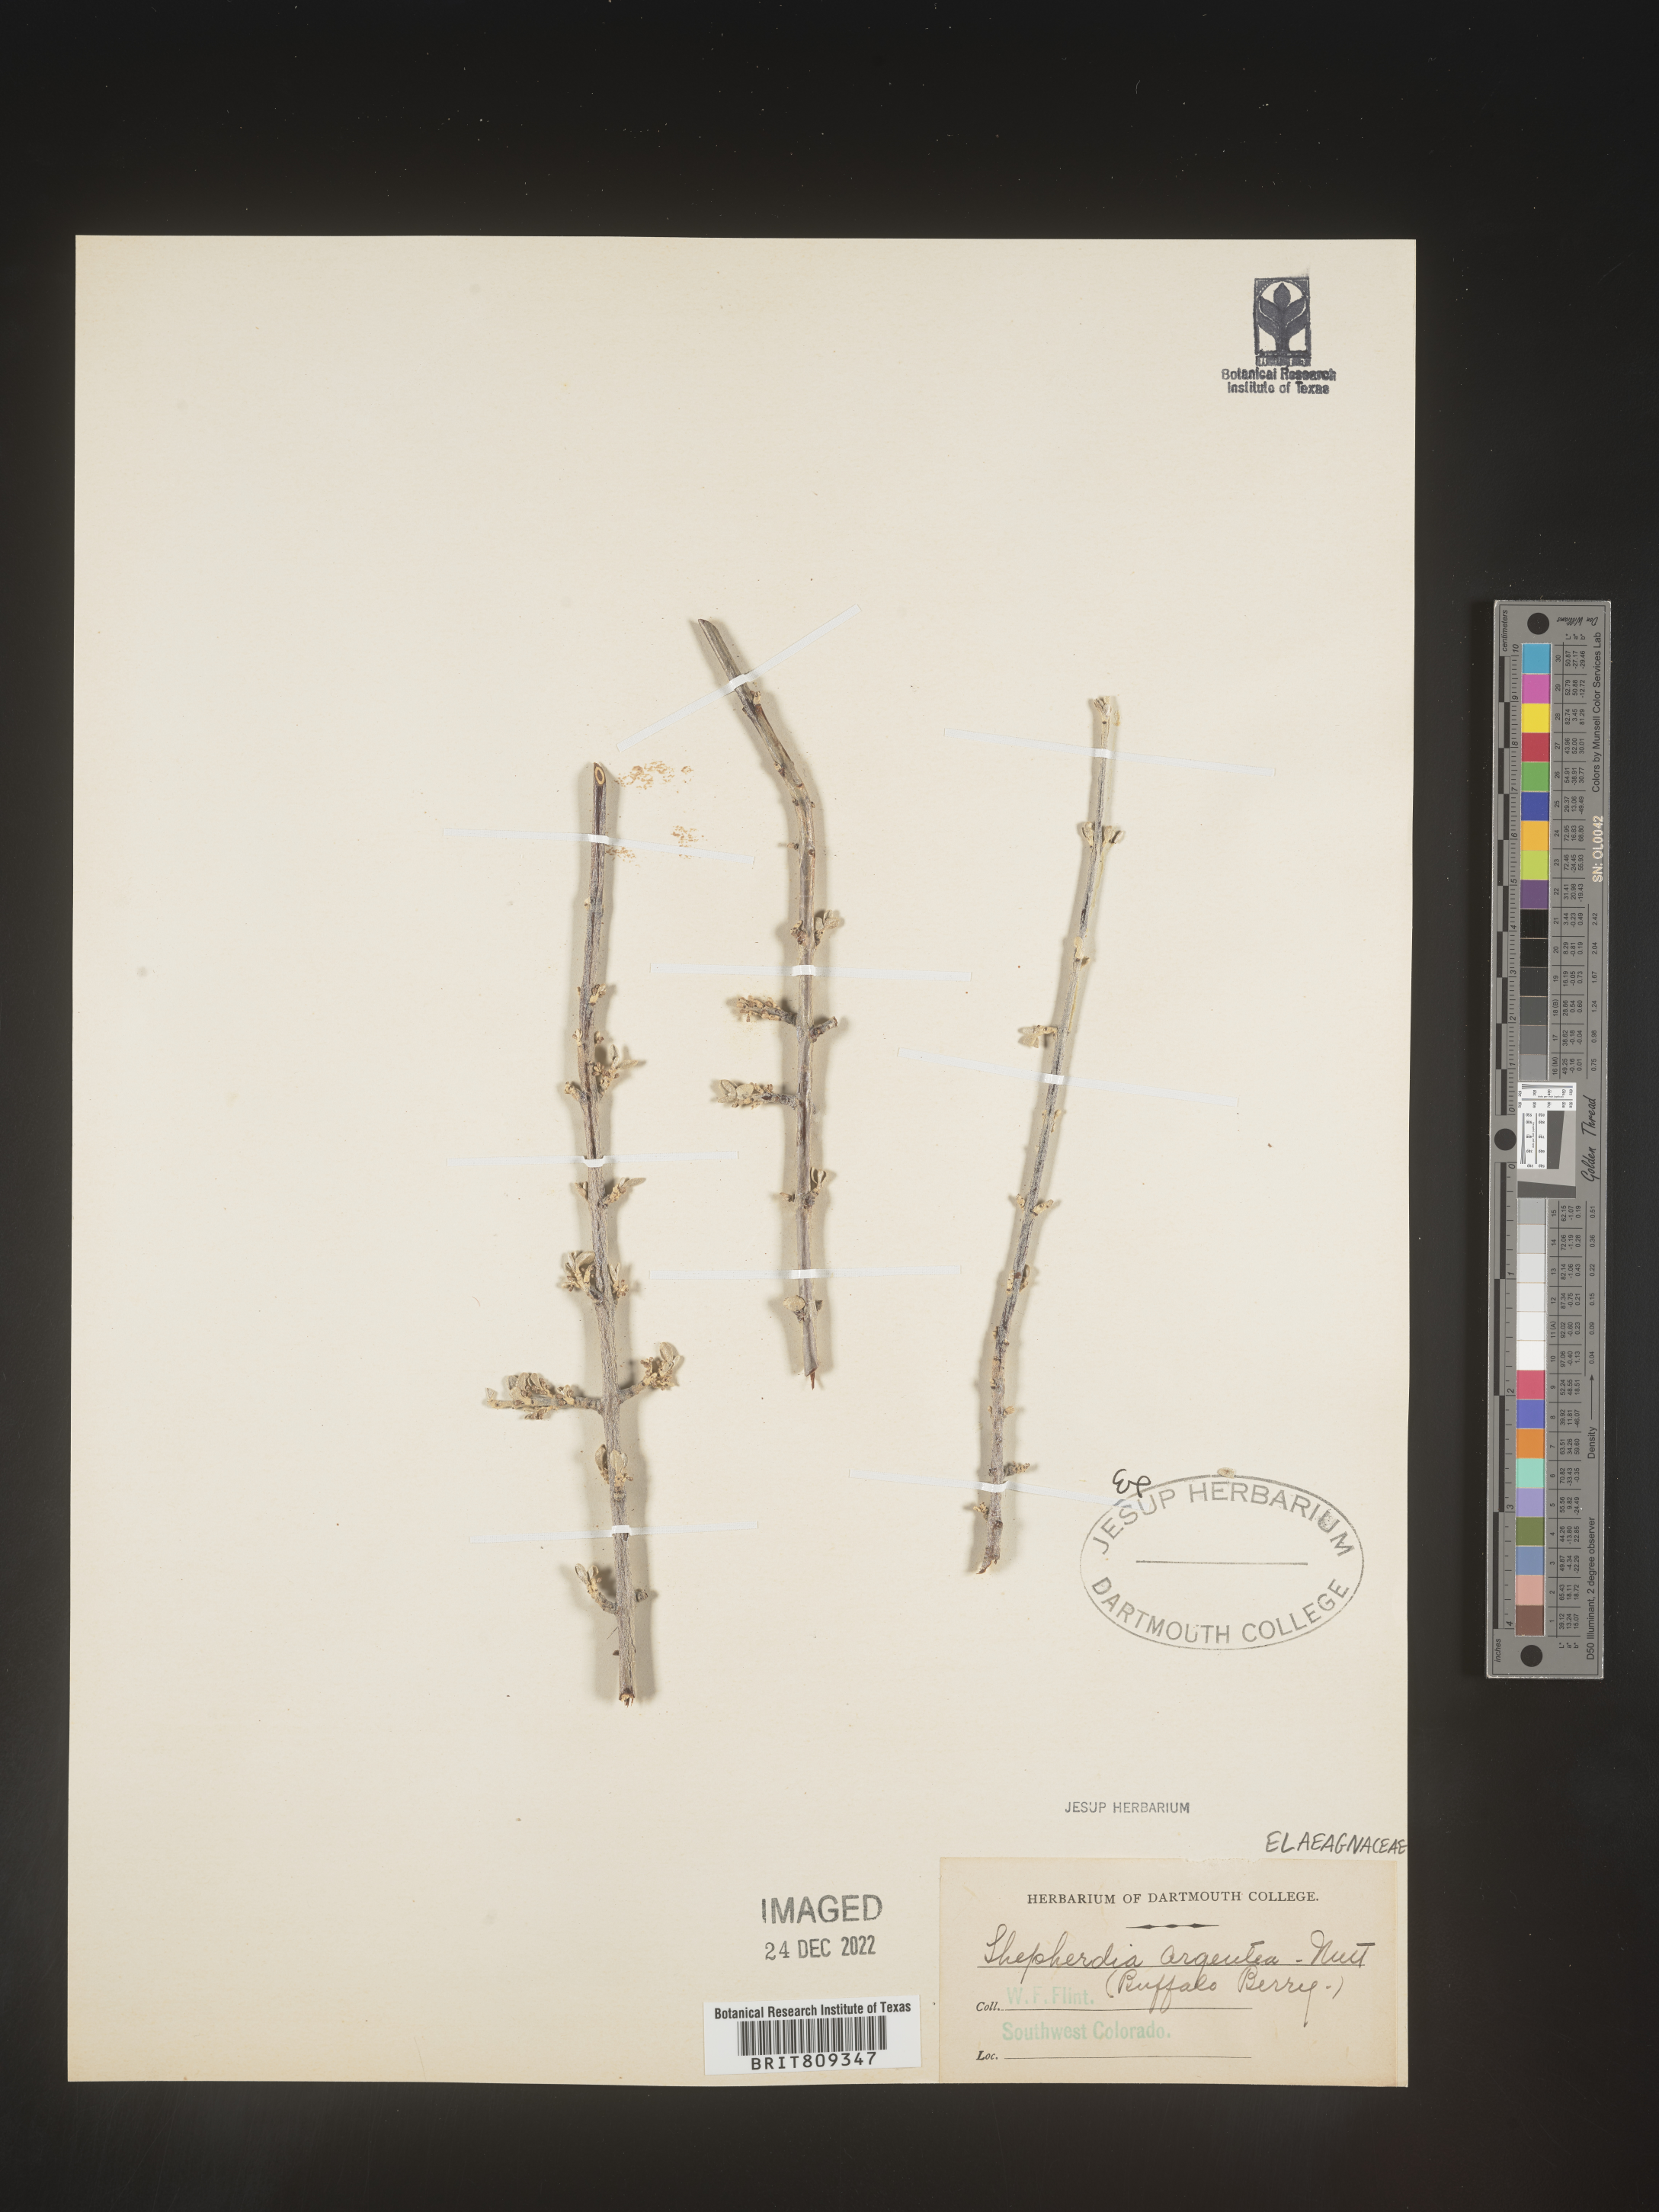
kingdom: Plantae
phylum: Tracheophyta
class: Magnoliopsida
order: Rosales
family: Elaeagnaceae
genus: Shepherdia
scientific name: Shepherdia argentea
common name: Silver buffaloberry
